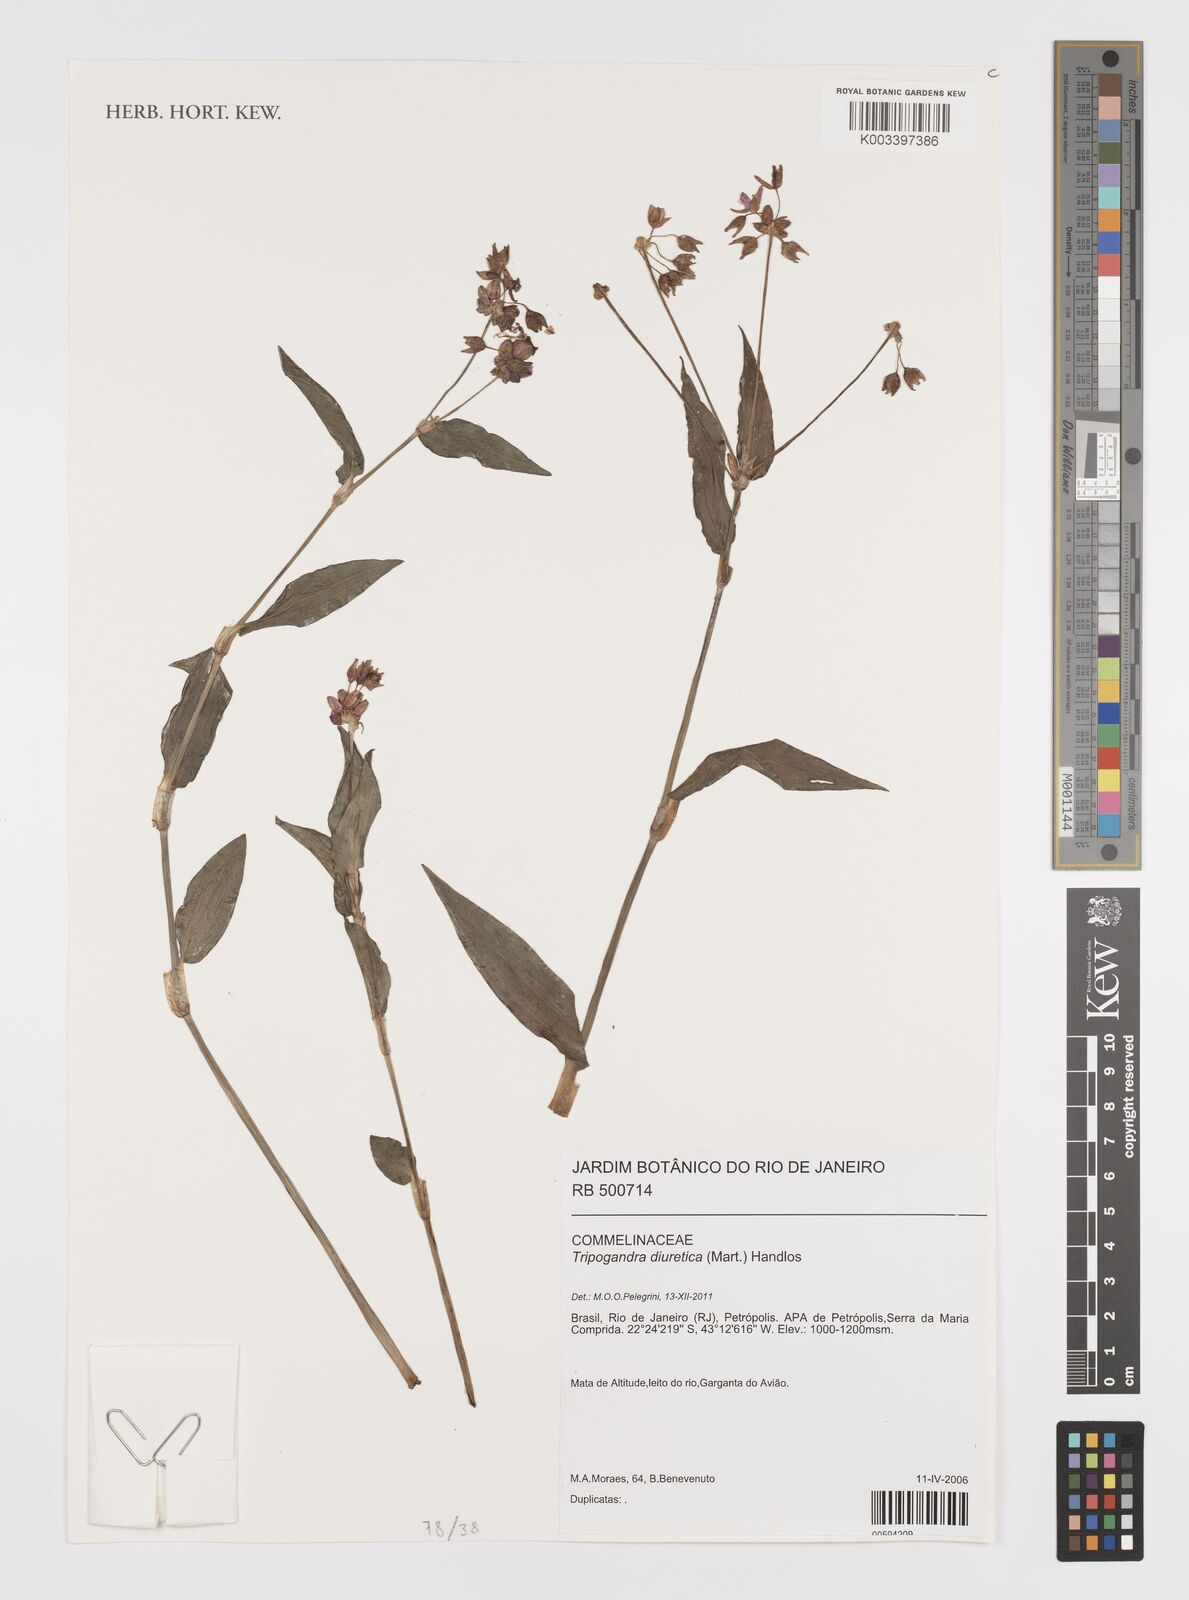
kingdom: Plantae
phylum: Tracheophyta
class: Liliopsida
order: Commelinales
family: Commelinaceae
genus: Callisia
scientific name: Callisia diuretica
